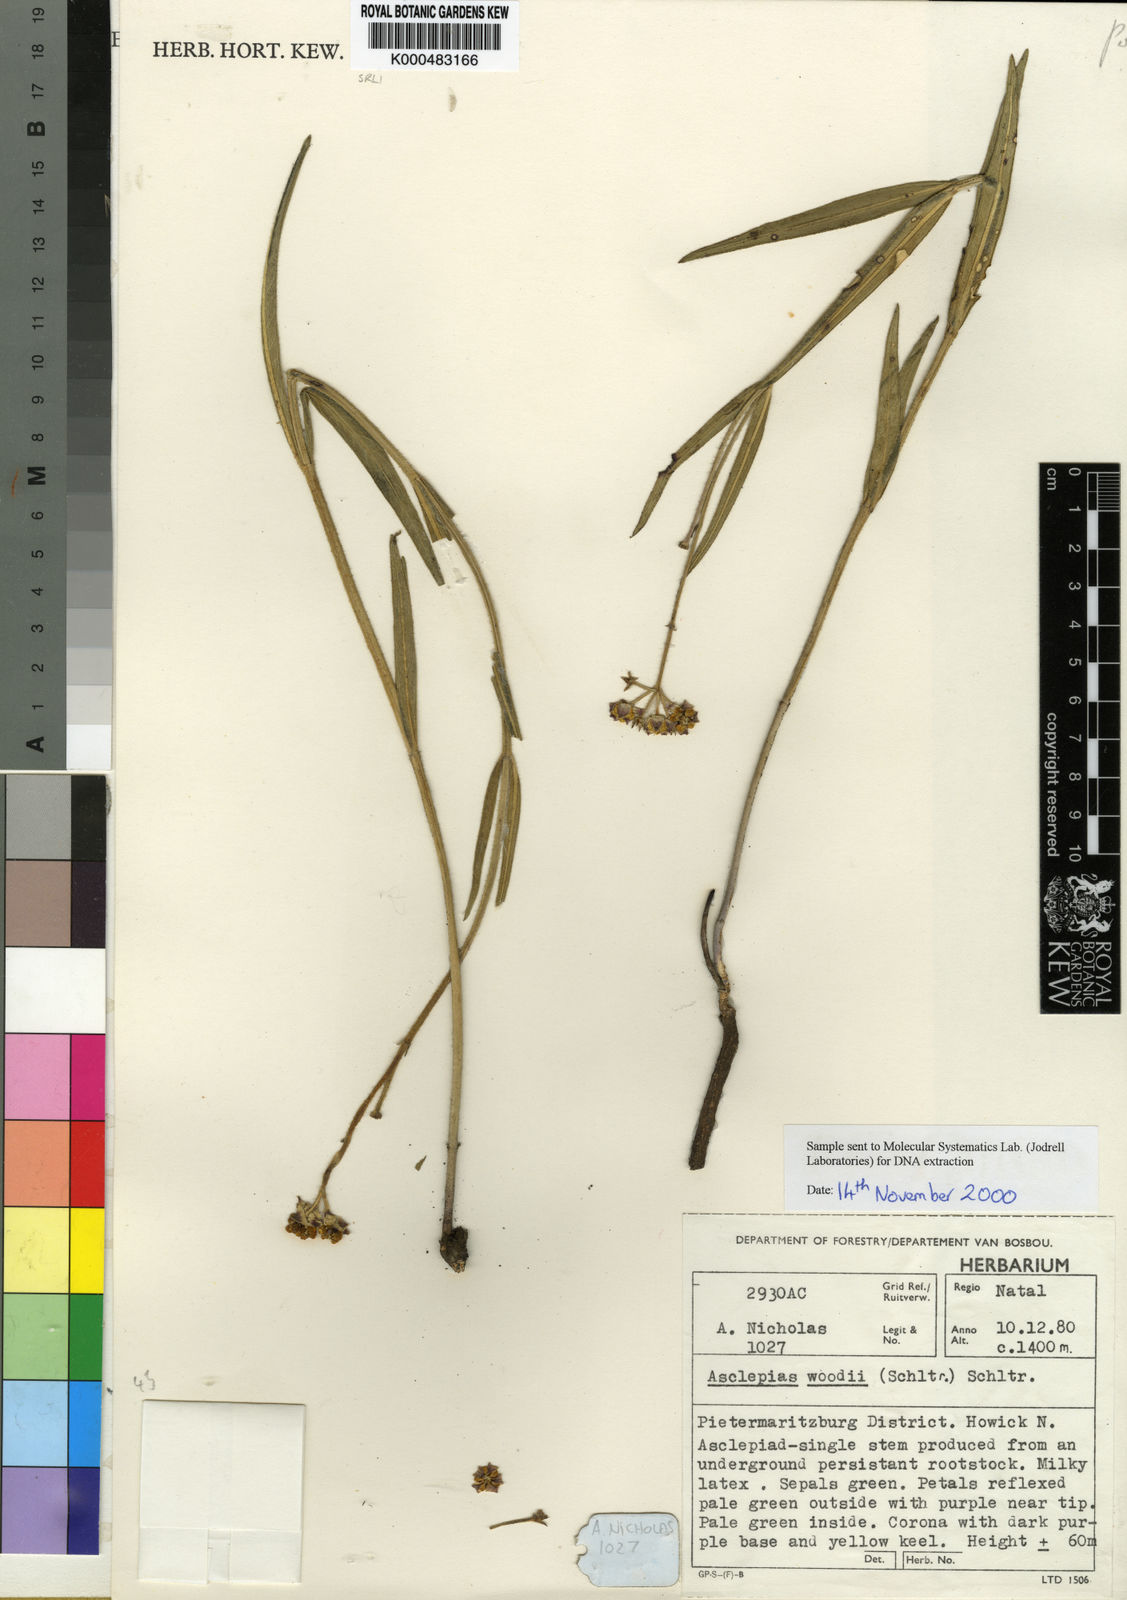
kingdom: Plantae
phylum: Tracheophyta
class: Magnoliopsida
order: Gentianales
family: Apocynaceae
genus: Asclepias
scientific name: Asclepias woodii
